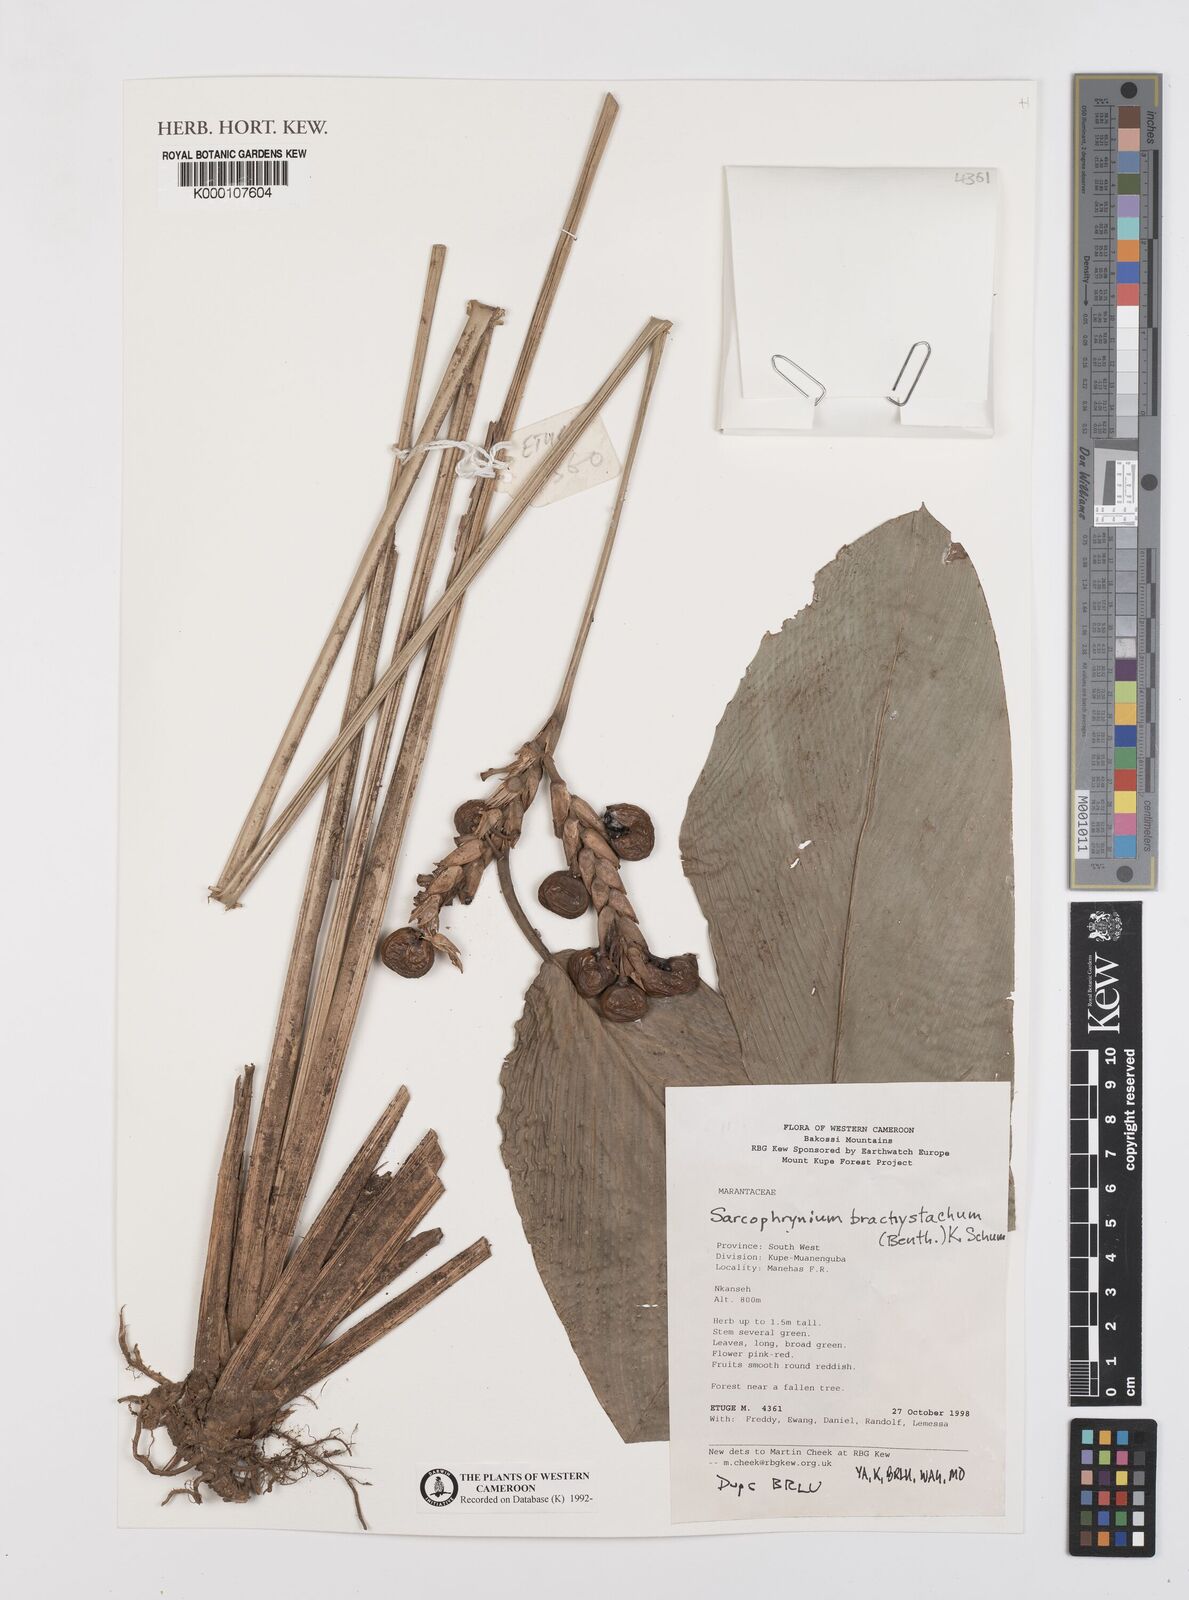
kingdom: Plantae
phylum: Tracheophyta
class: Liliopsida
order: Zingiberales
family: Marantaceae
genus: Sarcophrynium
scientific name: Sarcophrynium
